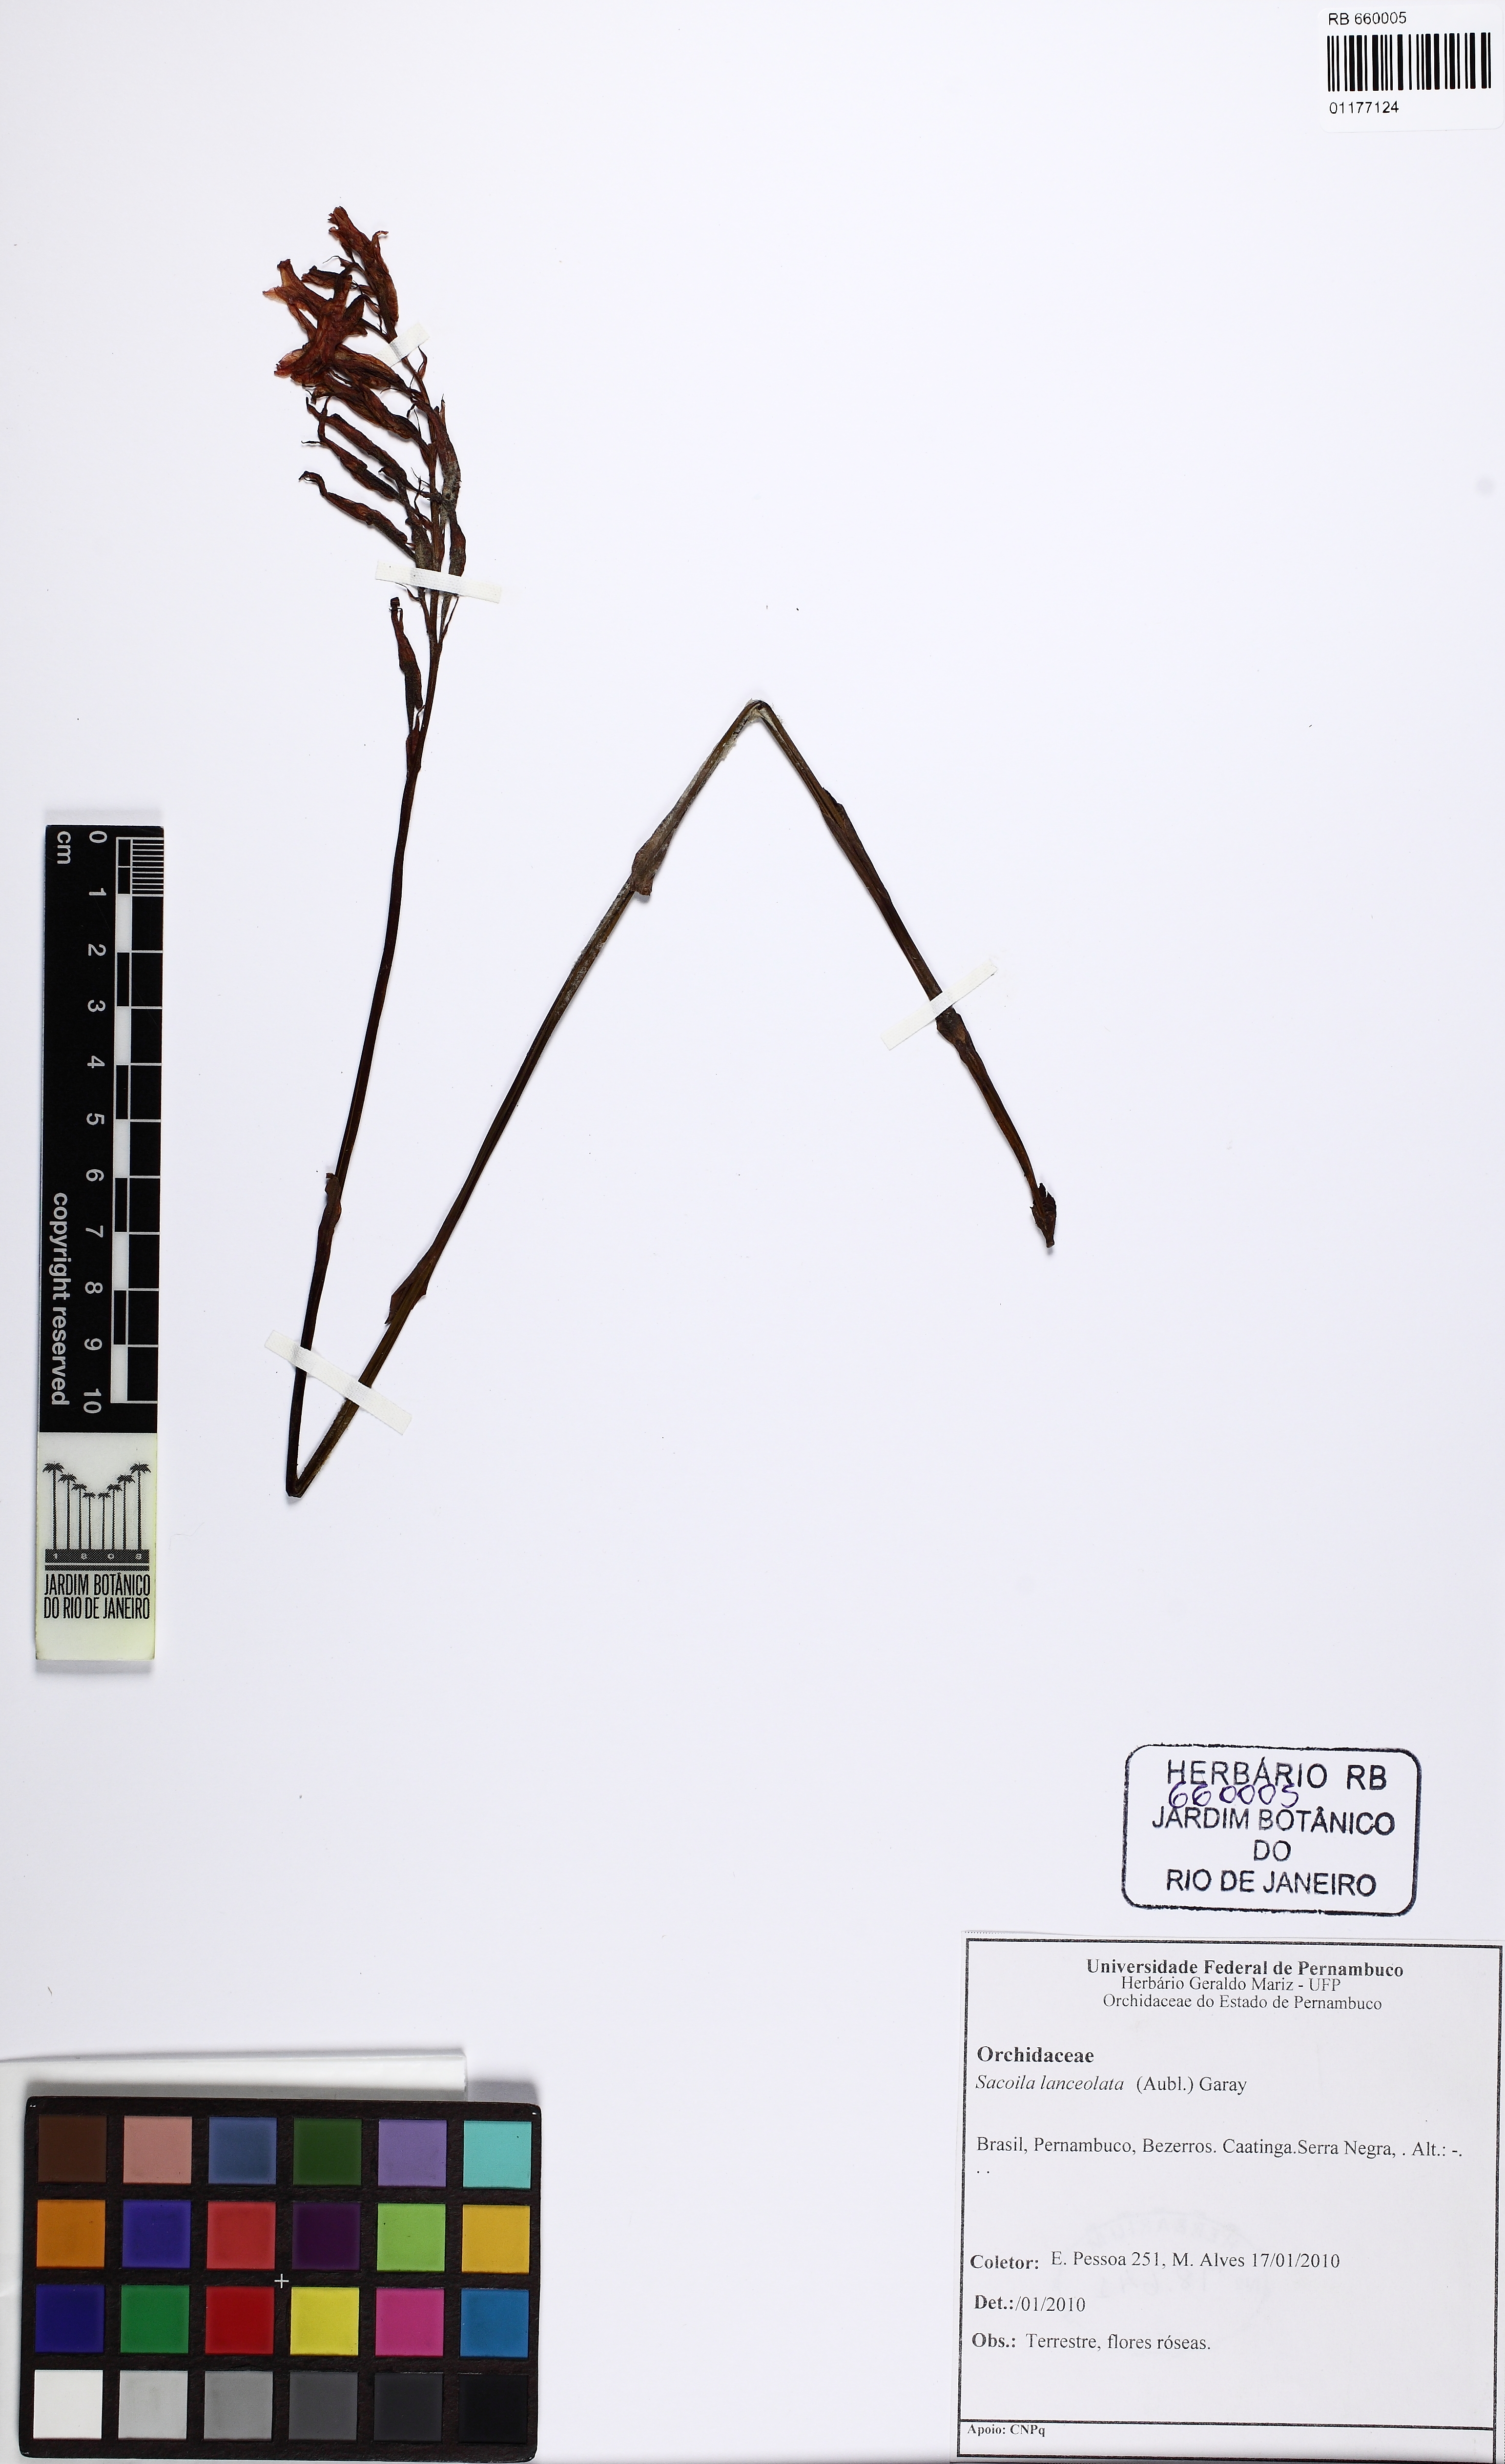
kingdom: Plantae
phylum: Tracheophyta
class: Liliopsida
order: Asparagales
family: Orchidaceae
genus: Sacoila
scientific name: Sacoila lanceolata
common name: Leafless beaked ladiestresses
